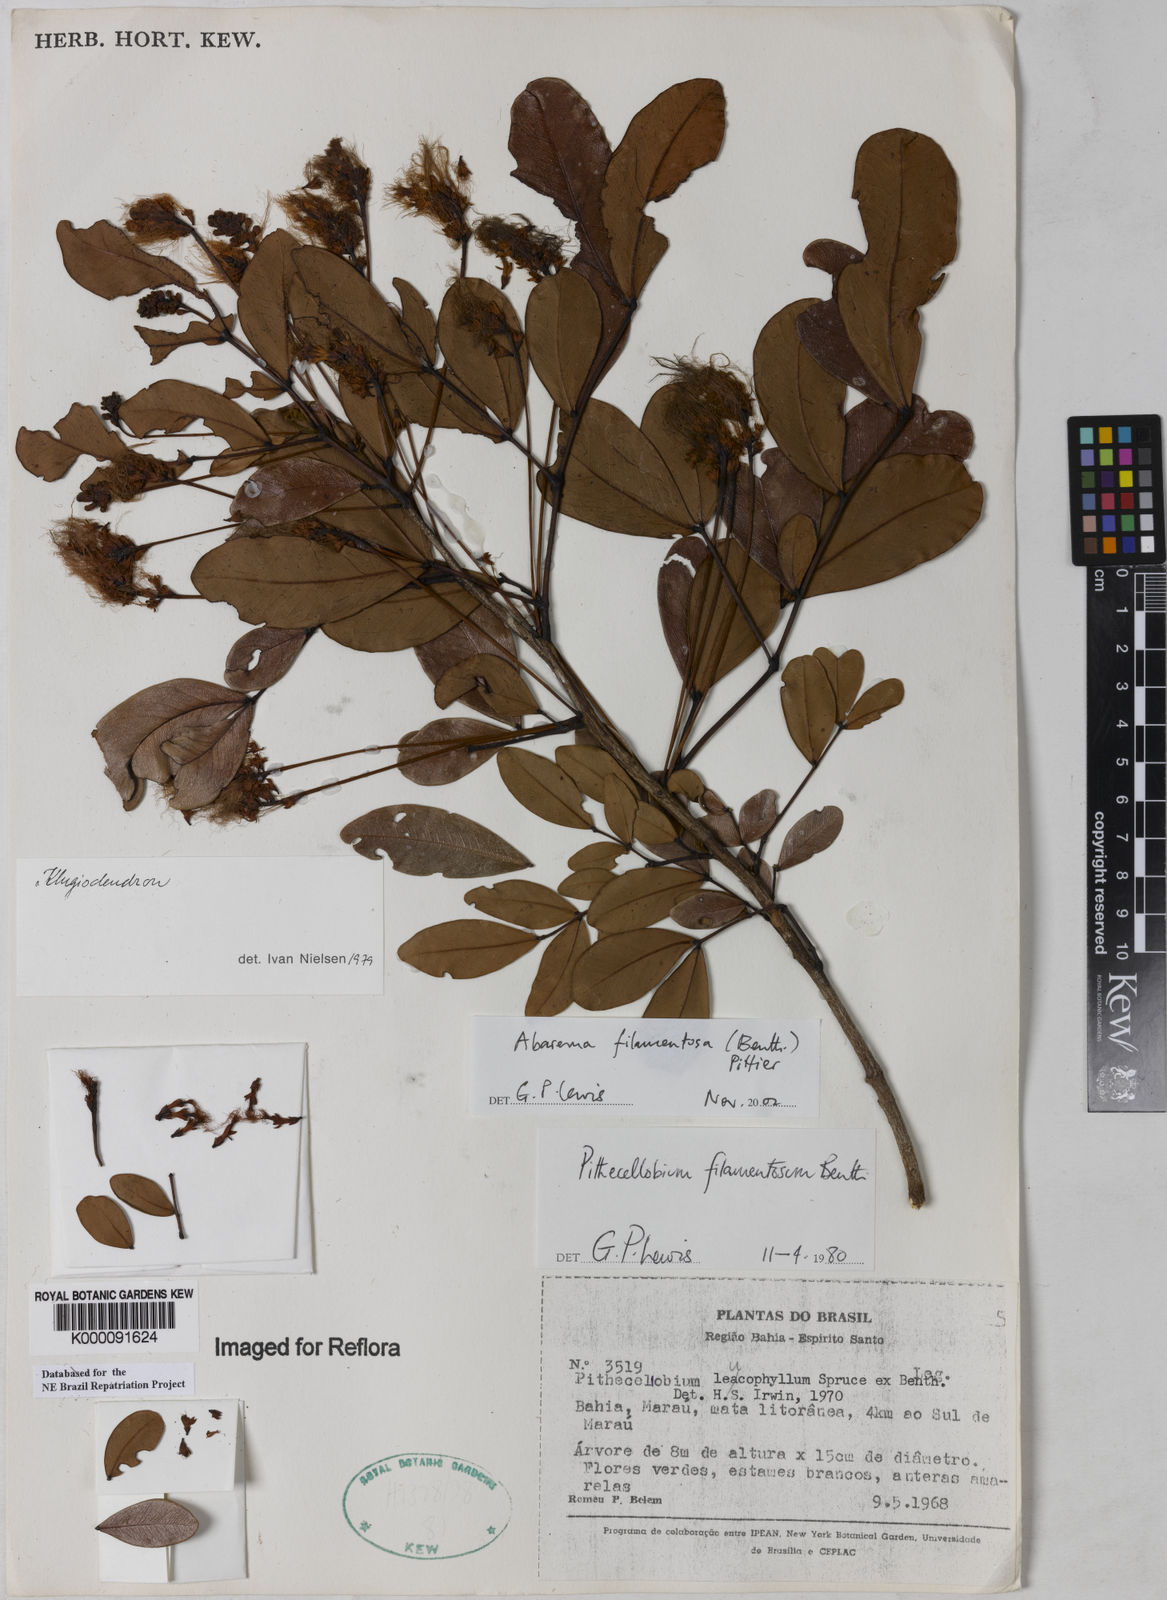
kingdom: Plantae
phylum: Tracheophyta
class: Magnoliopsida
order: Fabales
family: Fabaceae
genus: Jupunba
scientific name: Jupunba filamentosa
